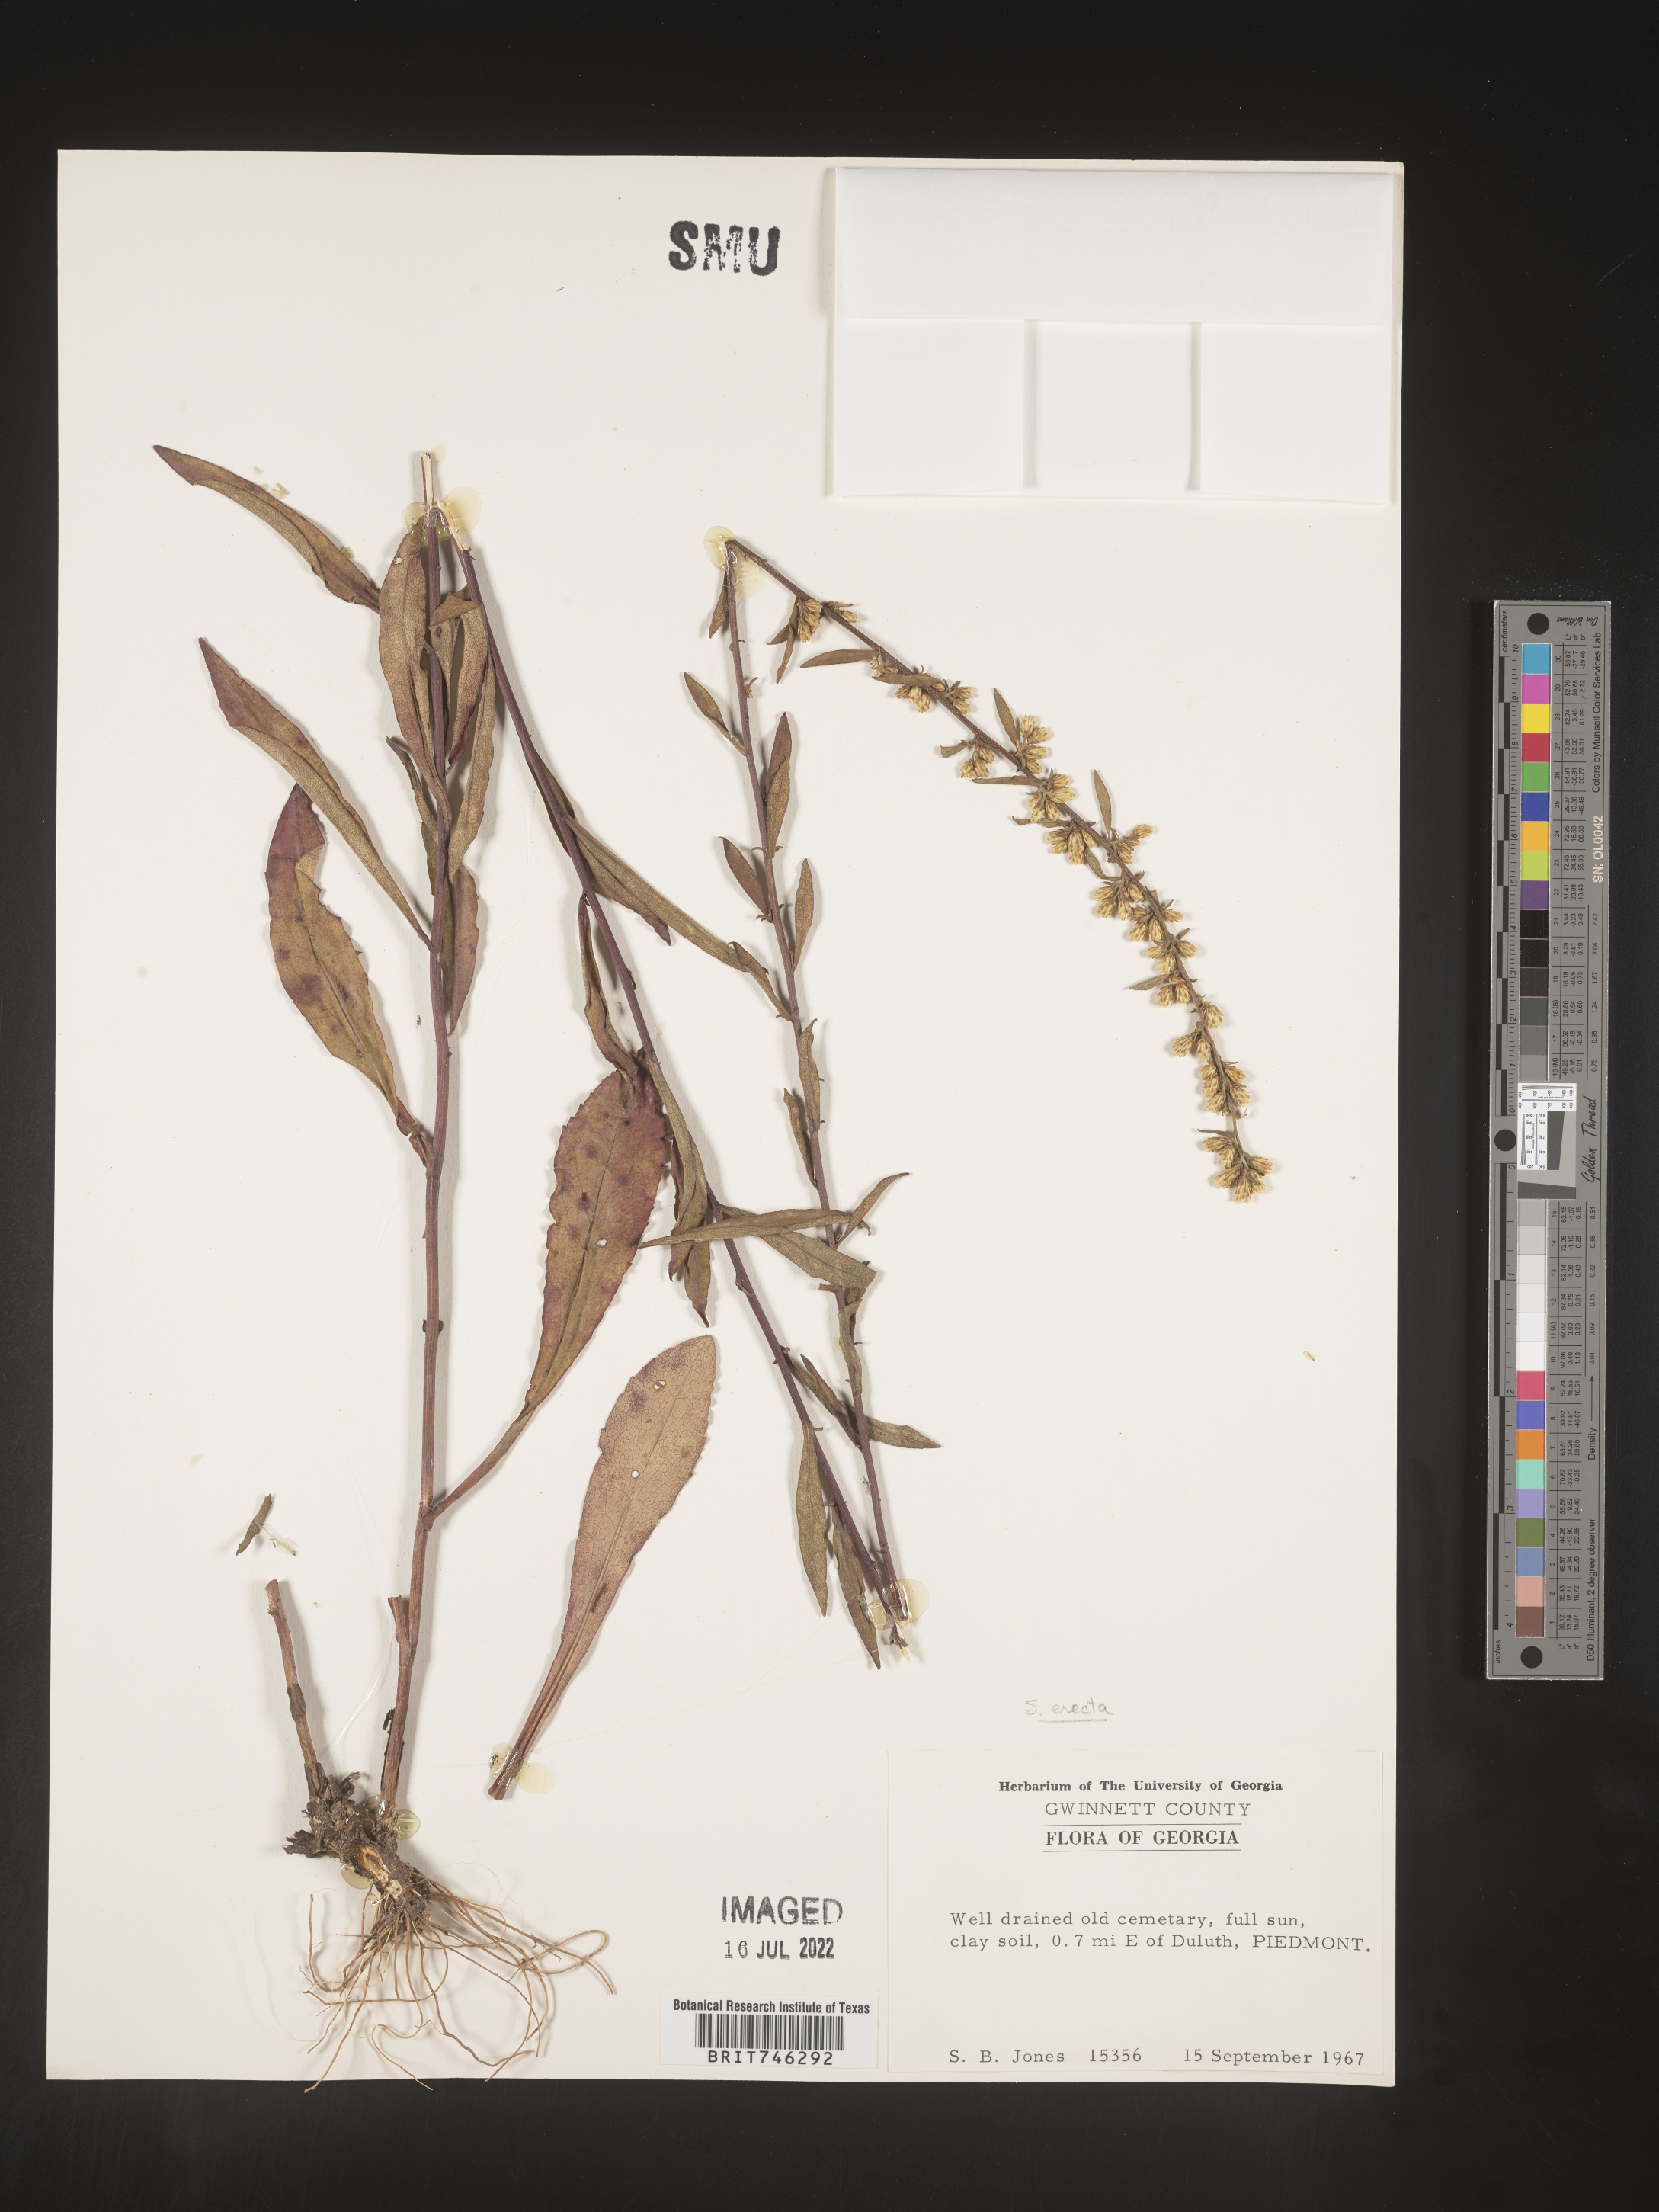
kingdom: Plantae
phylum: Tracheophyta
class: Magnoliopsida
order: Asterales
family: Asteraceae
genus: Solidago
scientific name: Solidago erecta
